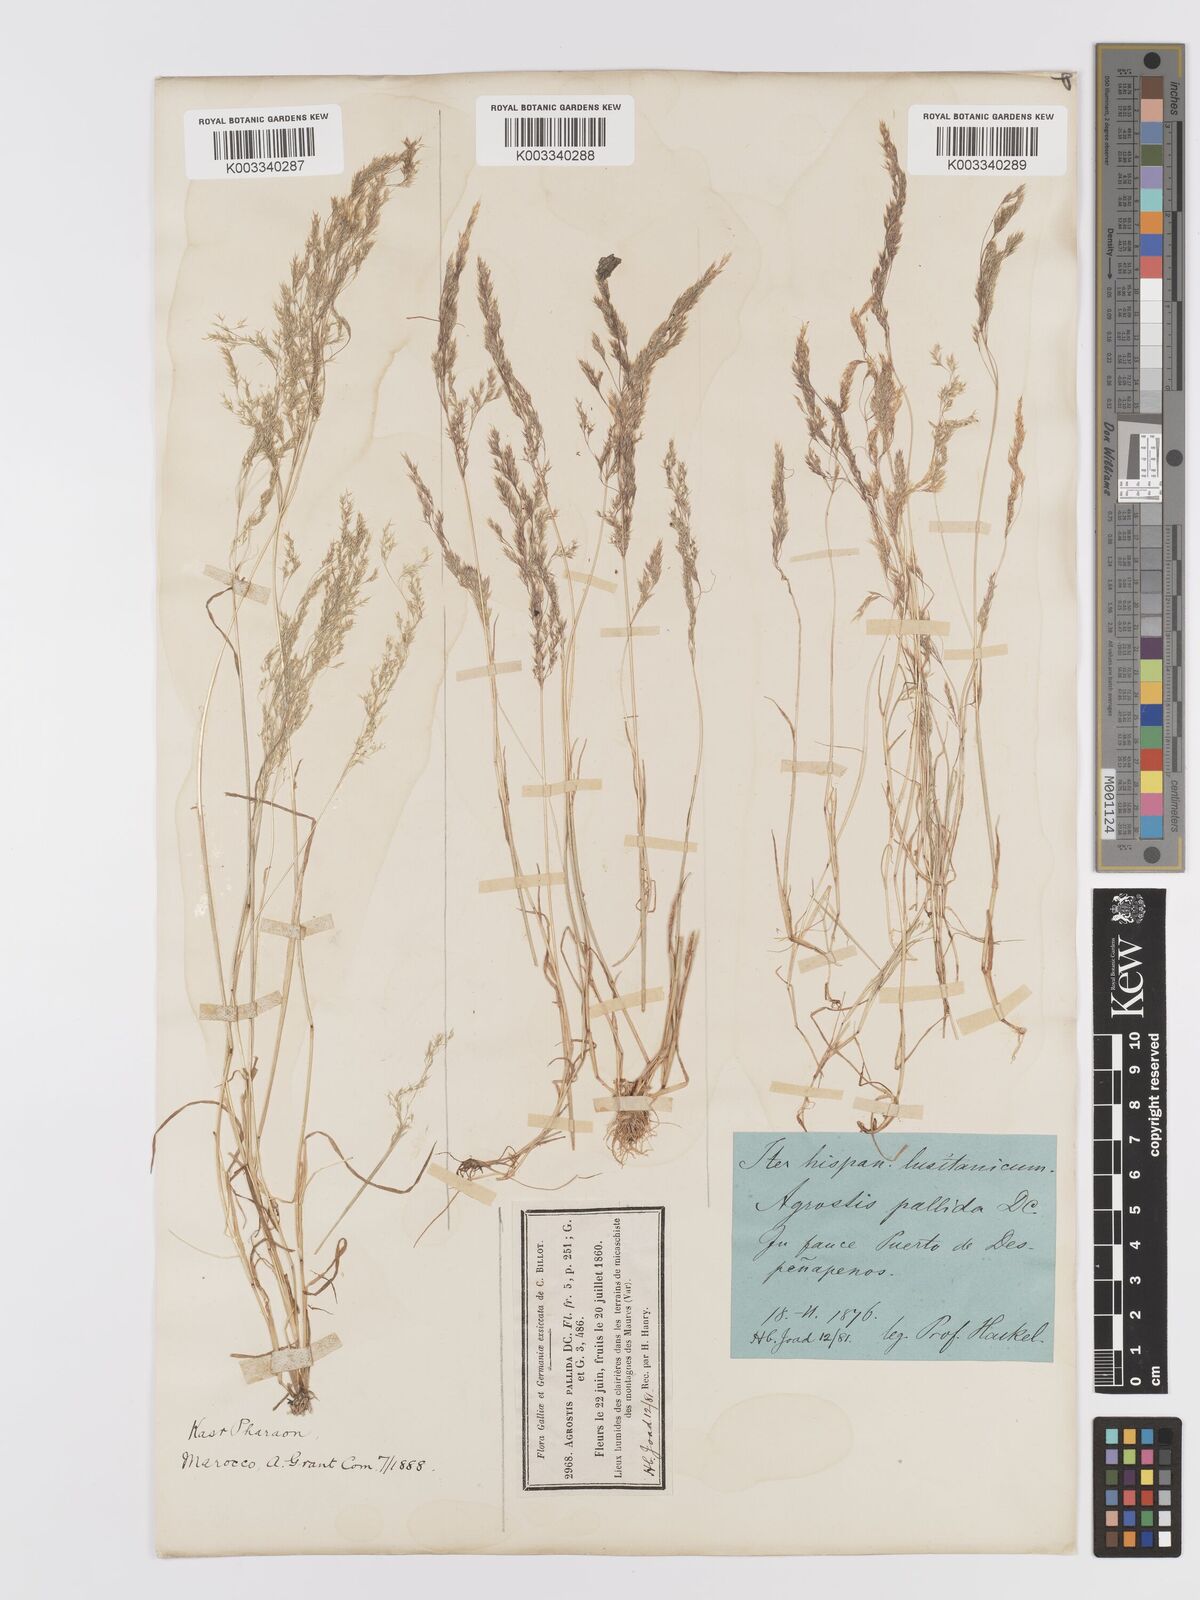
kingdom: Plantae
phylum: Tracheophyta
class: Liliopsida
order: Poales
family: Poaceae
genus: Agrostis
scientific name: Agrostis pourretii
